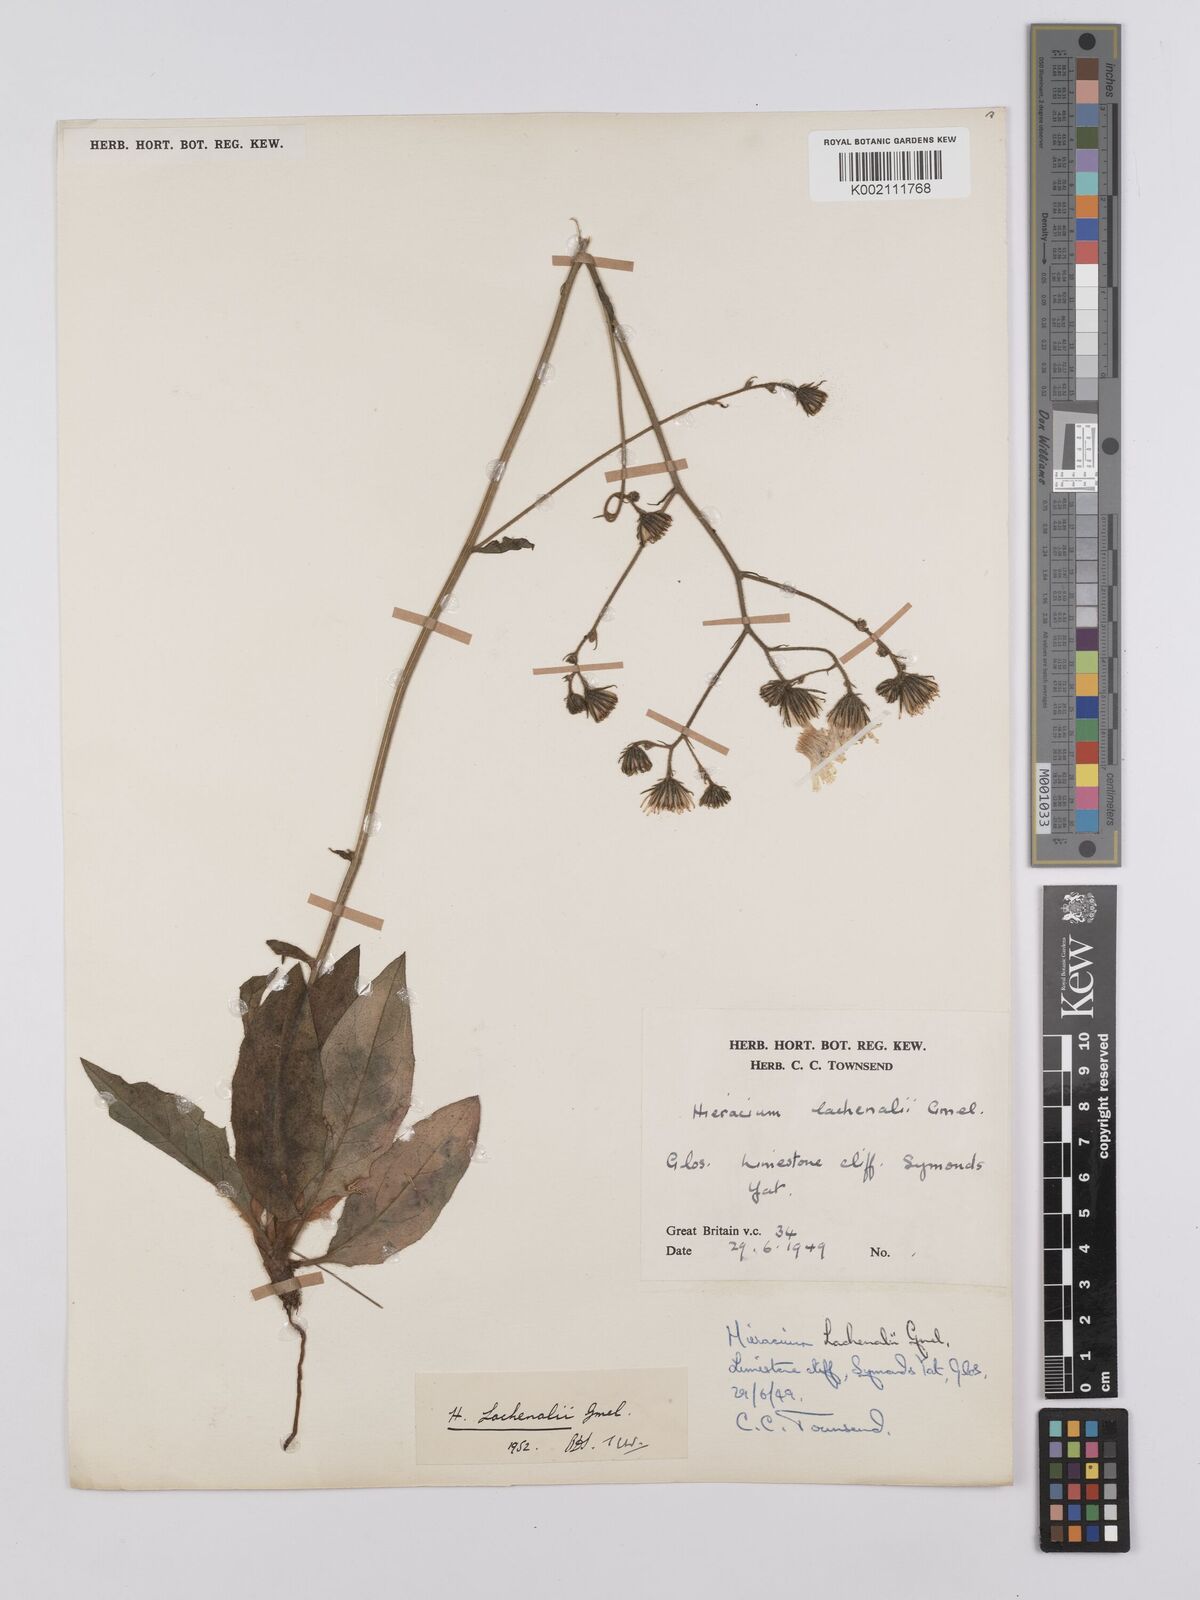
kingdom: Plantae
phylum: Tracheophyta
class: Magnoliopsida
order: Asterales
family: Asteraceae
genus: Hieracium
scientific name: Hieracium lachenalii
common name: Common hawkweed
